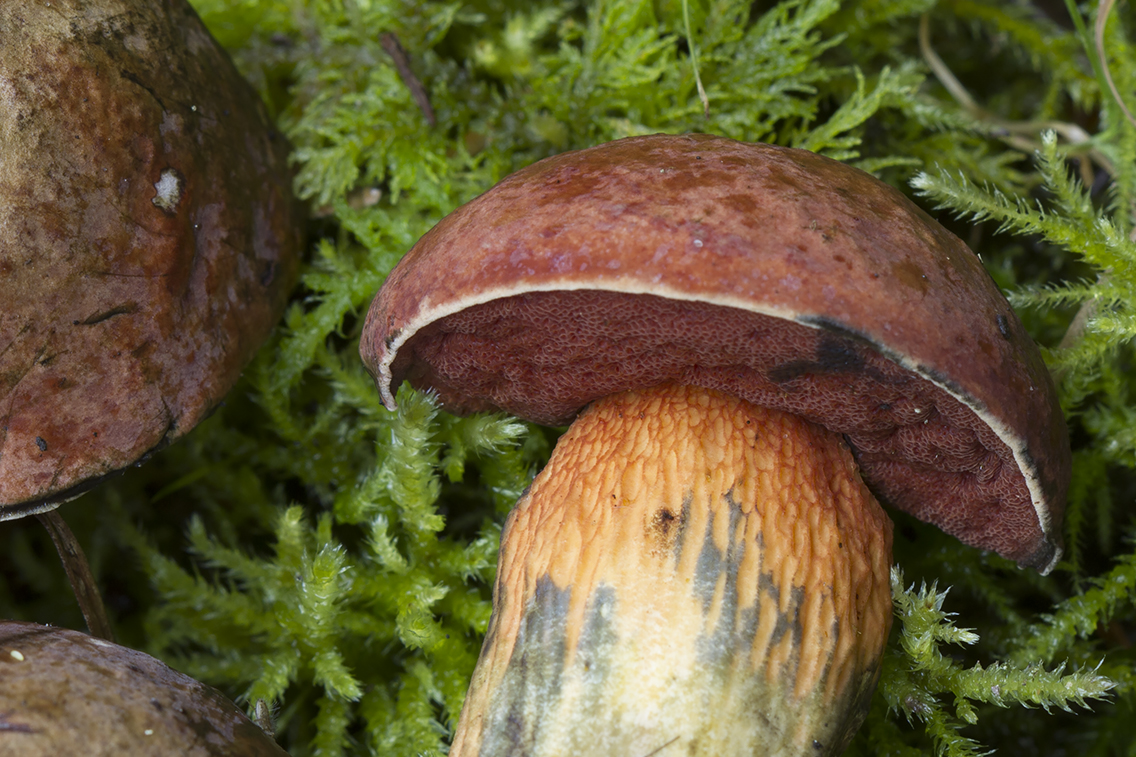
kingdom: Fungi
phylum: Basidiomycota
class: Agaricomycetes
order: Boletales
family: Boletaceae
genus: Suillellus
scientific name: Suillellus luridus
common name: netstokket indigorørhat
